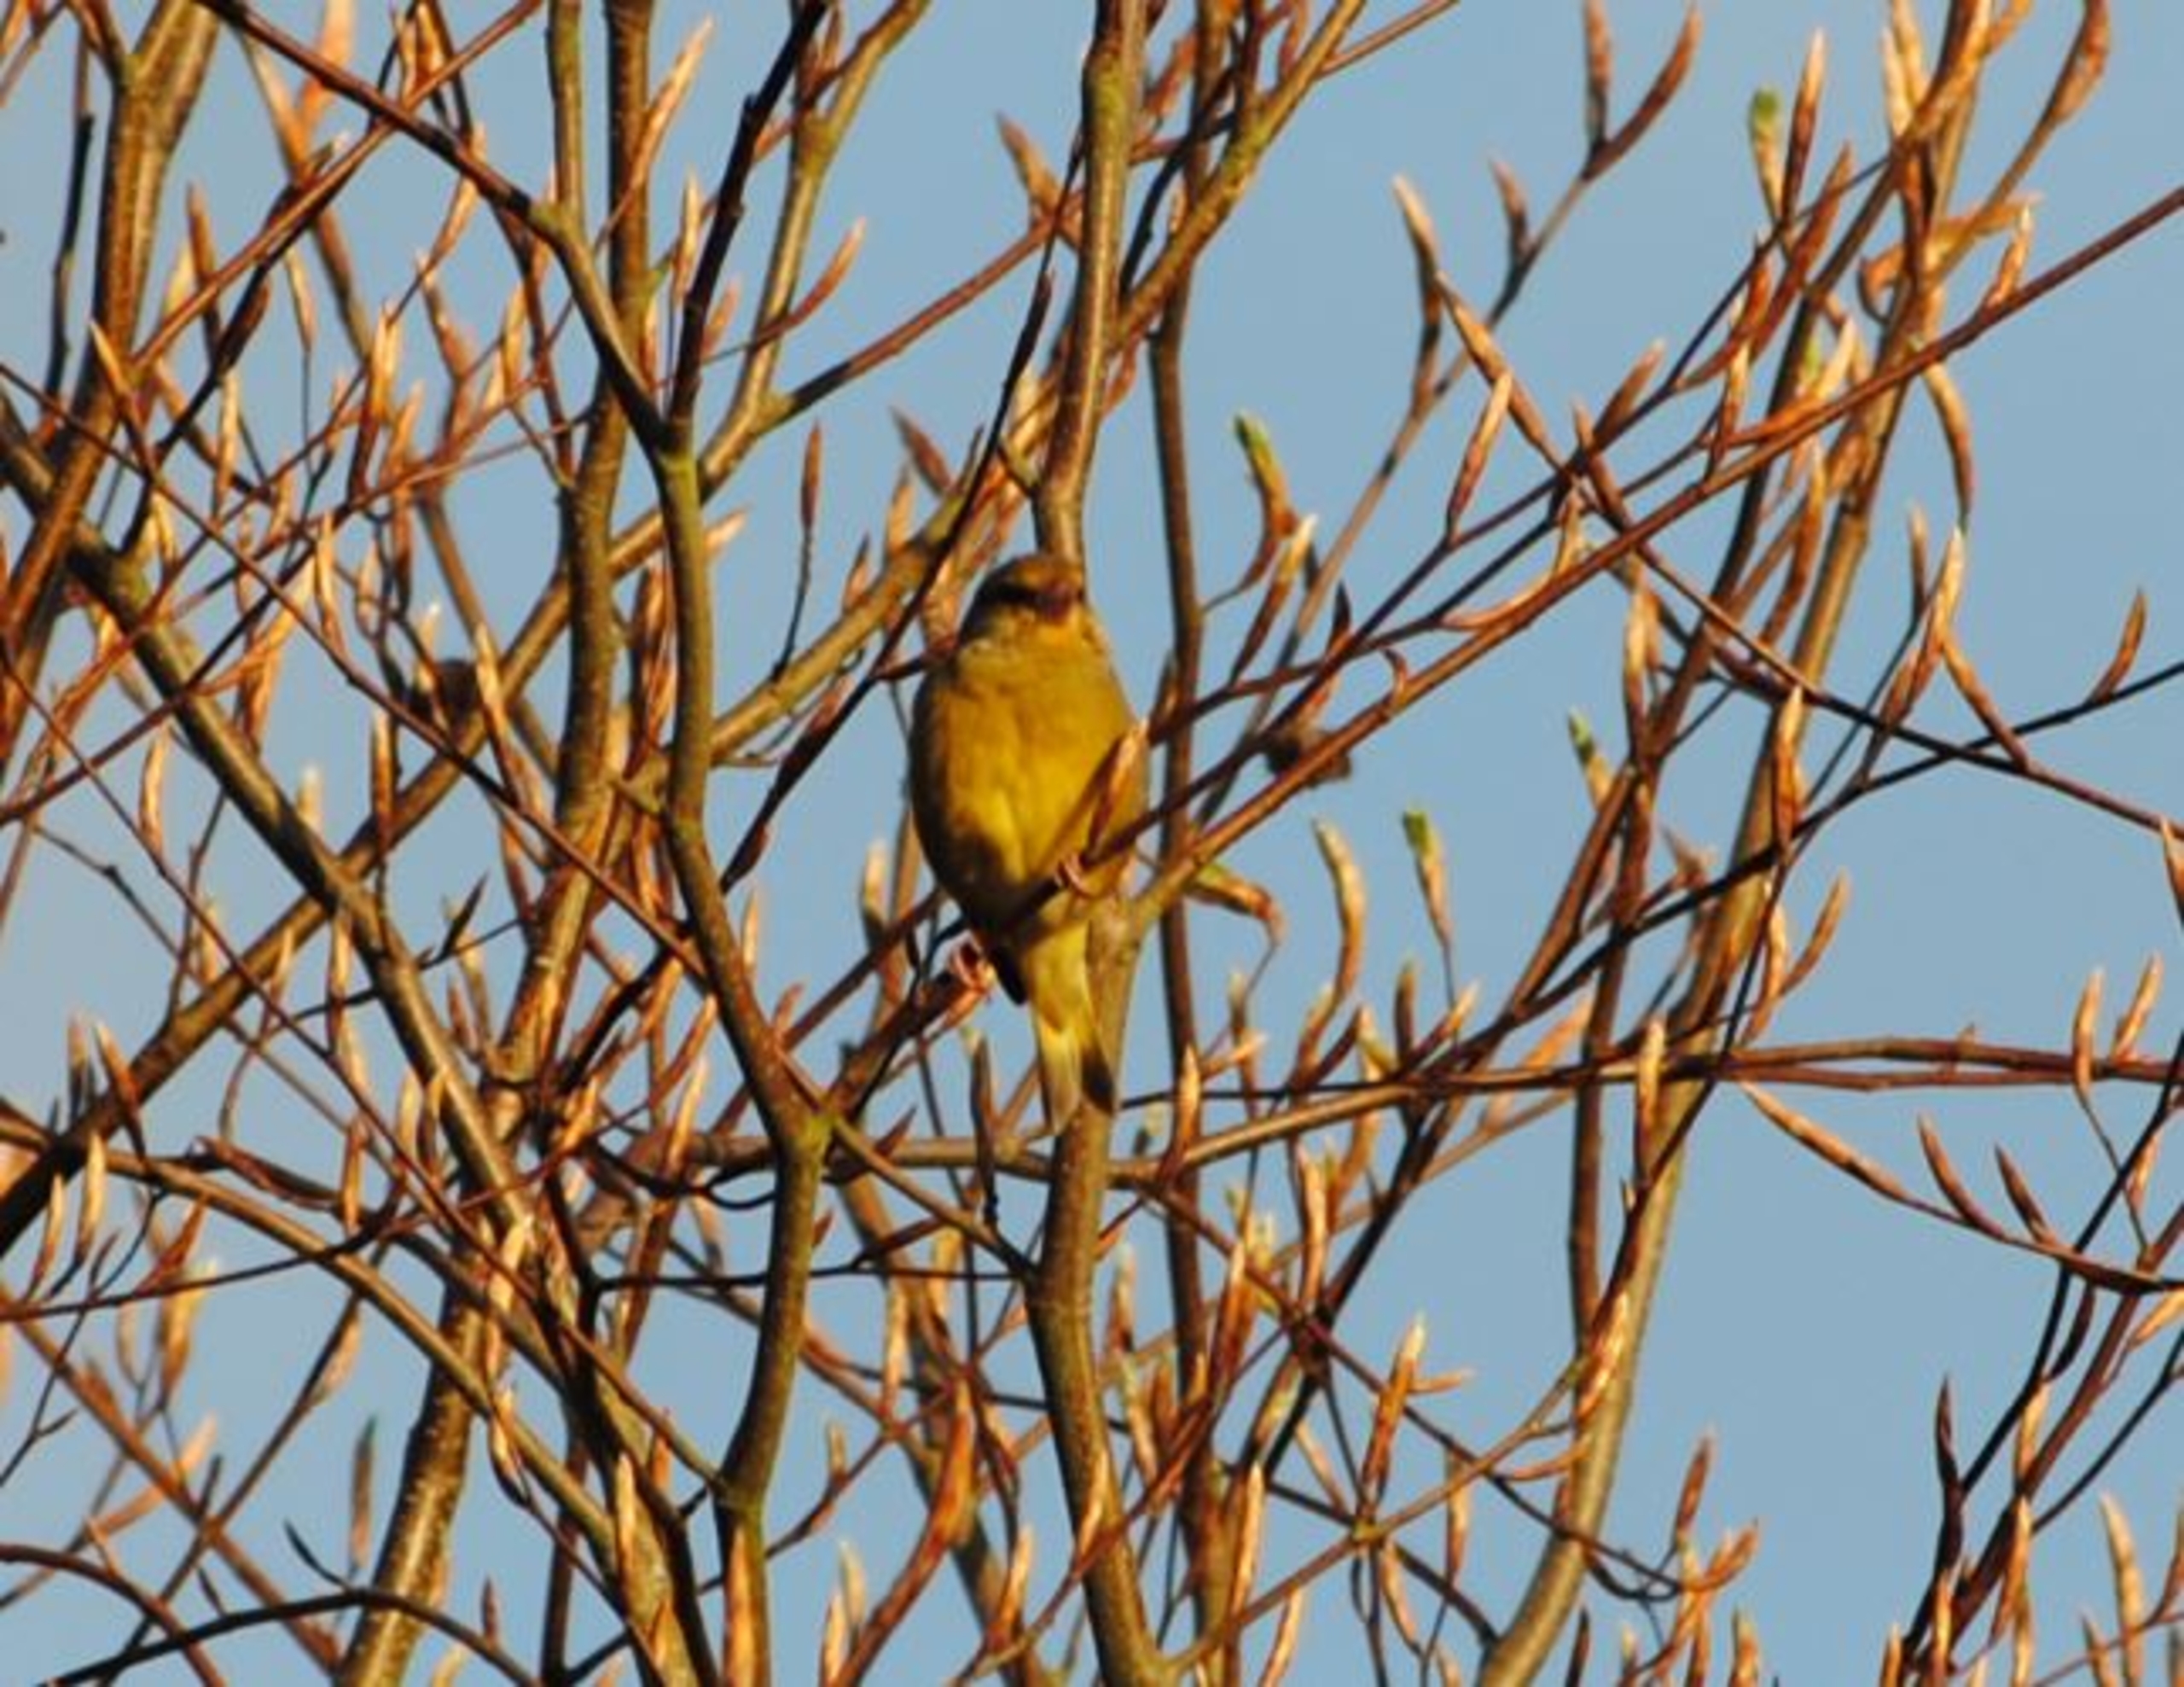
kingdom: Plantae
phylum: Tracheophyta
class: Liliopsida
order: Poales
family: Poaceae
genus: Chloris
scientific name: Chloris chloris
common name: Grønirisk
